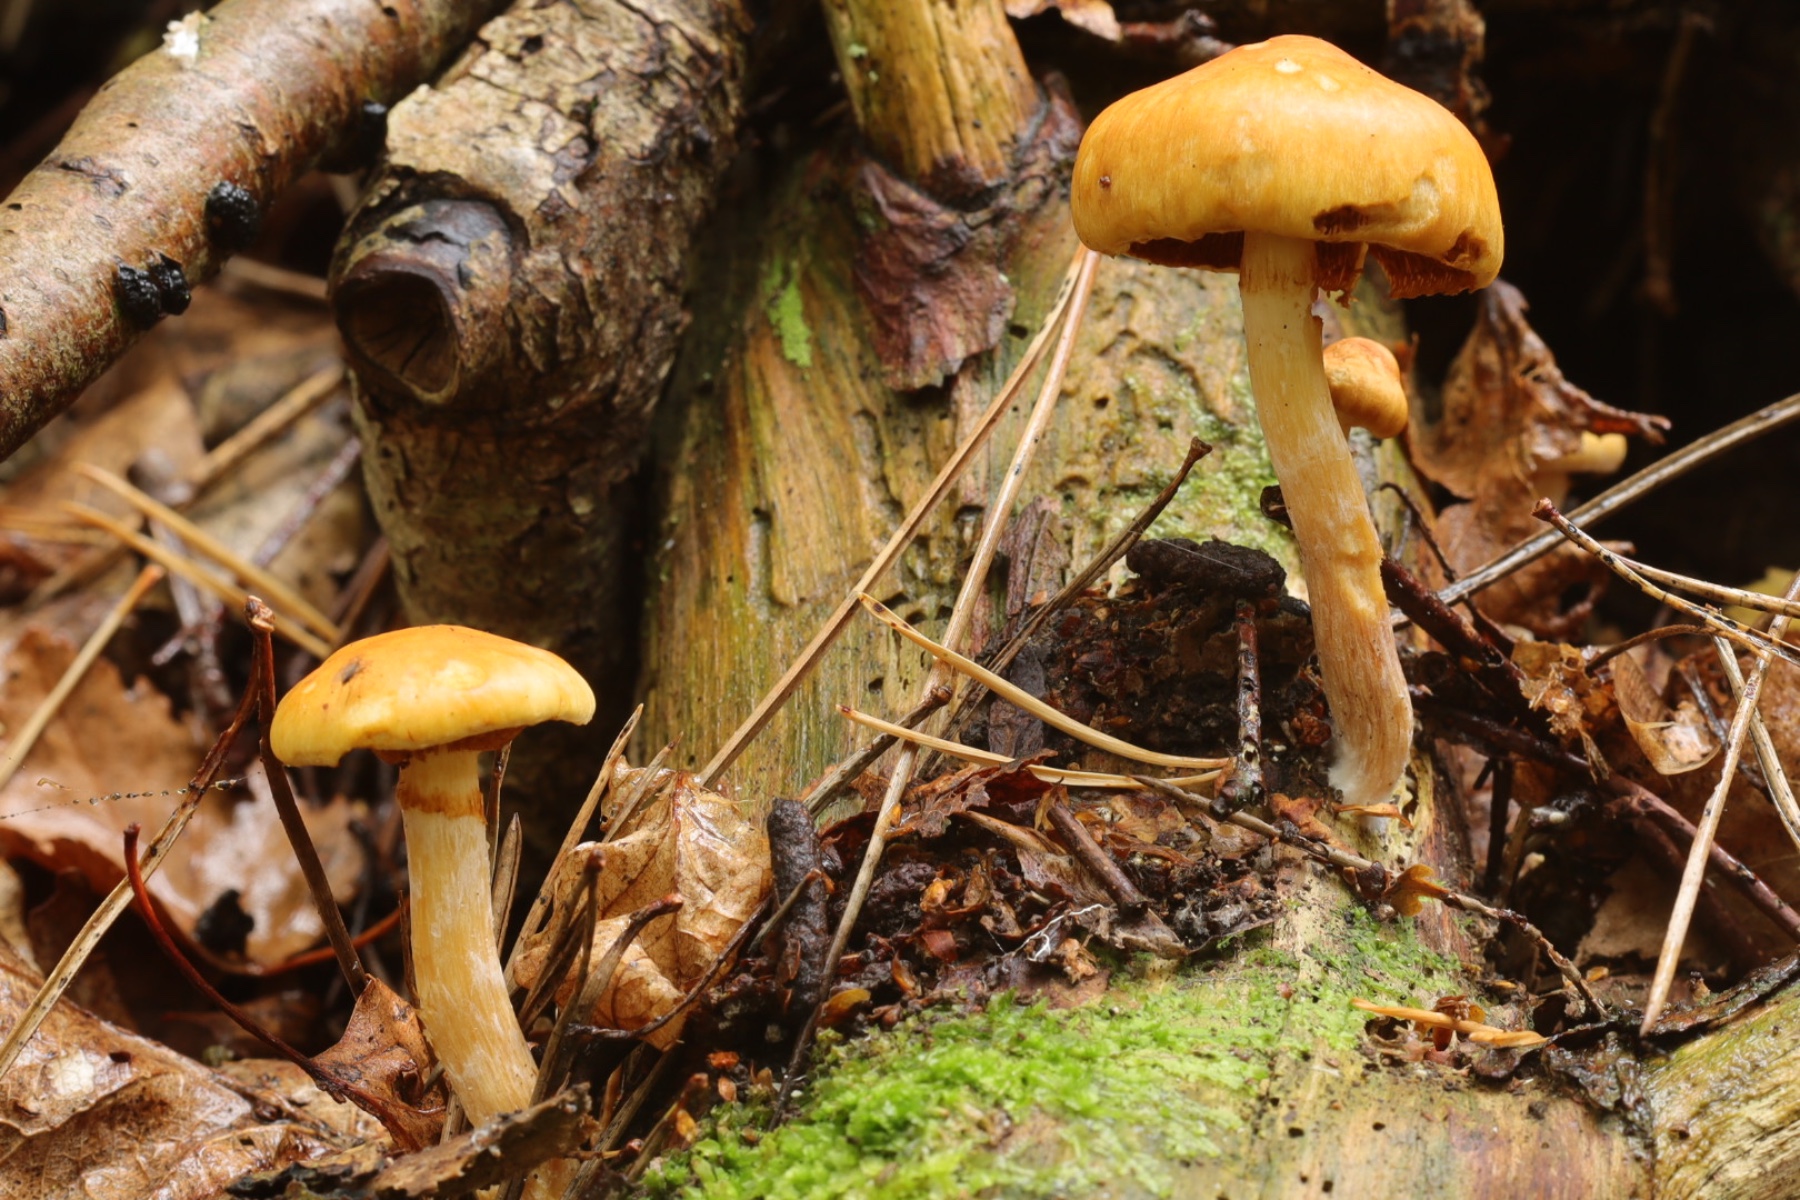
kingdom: Fungi
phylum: Basidiomycota
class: Agaricomycetes
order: Agaricales
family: Hymenogastraceae
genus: Gymnopilus
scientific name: Gymnopilus penetrans
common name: plettet flammehat
